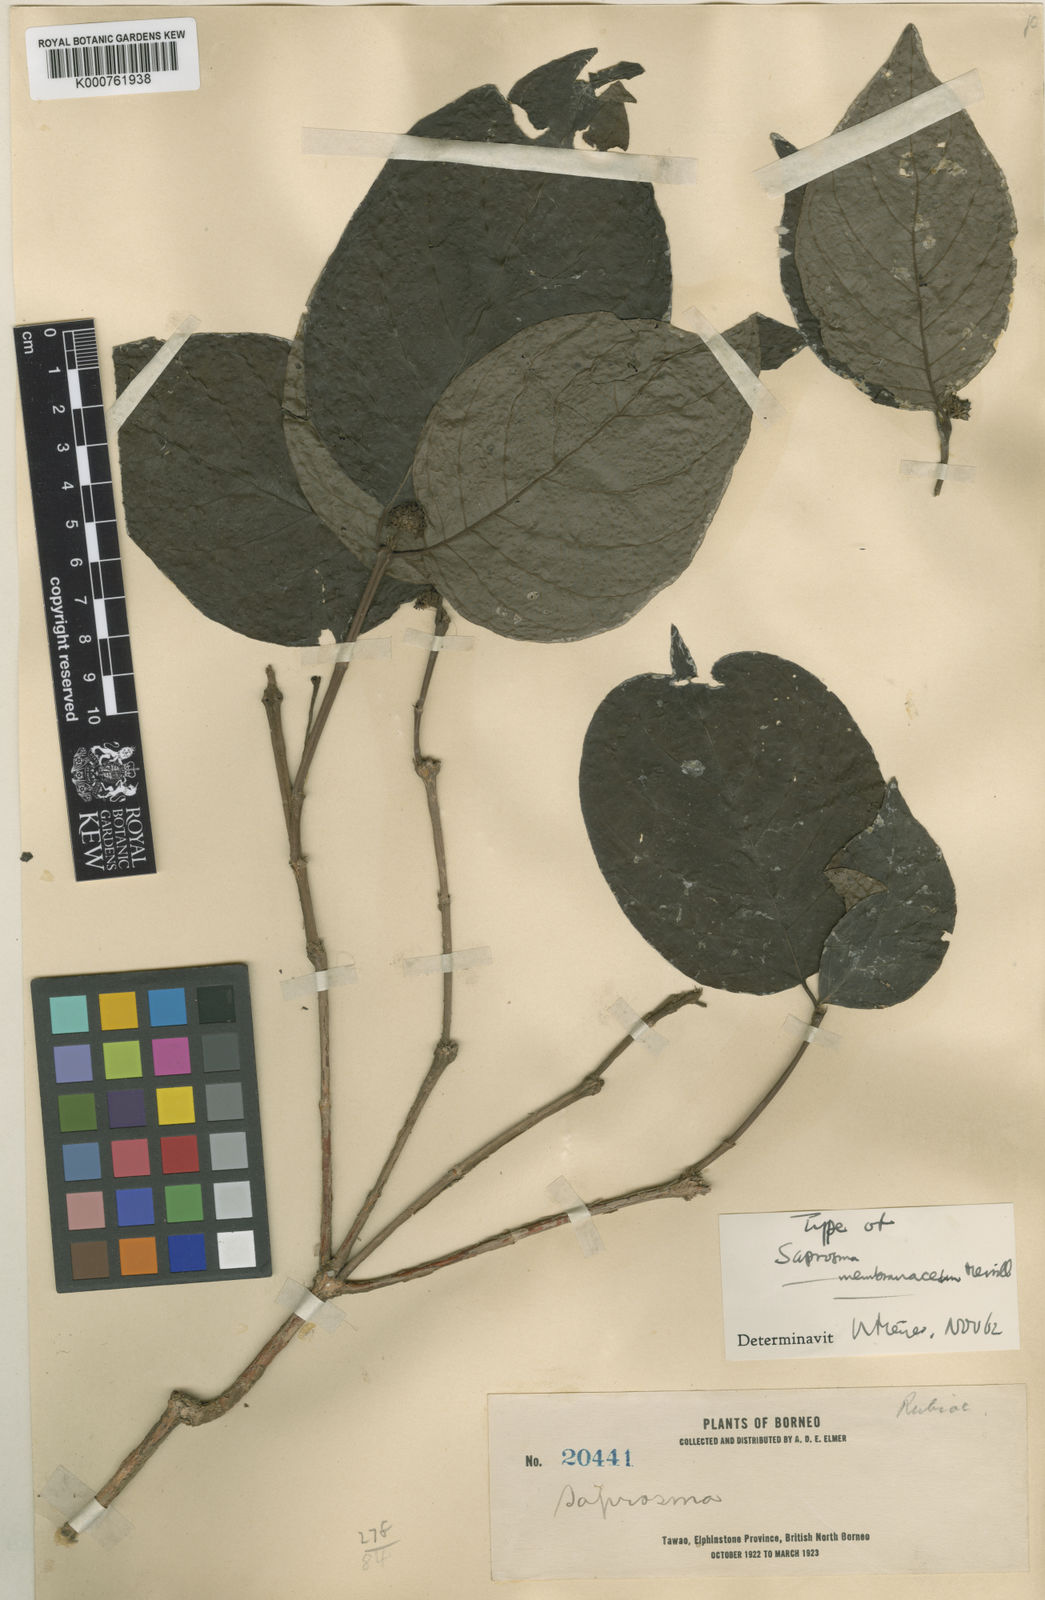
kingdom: Plantae
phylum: Tracheophyta
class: Magnoliopsida
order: Gentianales
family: Rubiaceae
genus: Saprosma
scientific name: Saprosma membranacea
